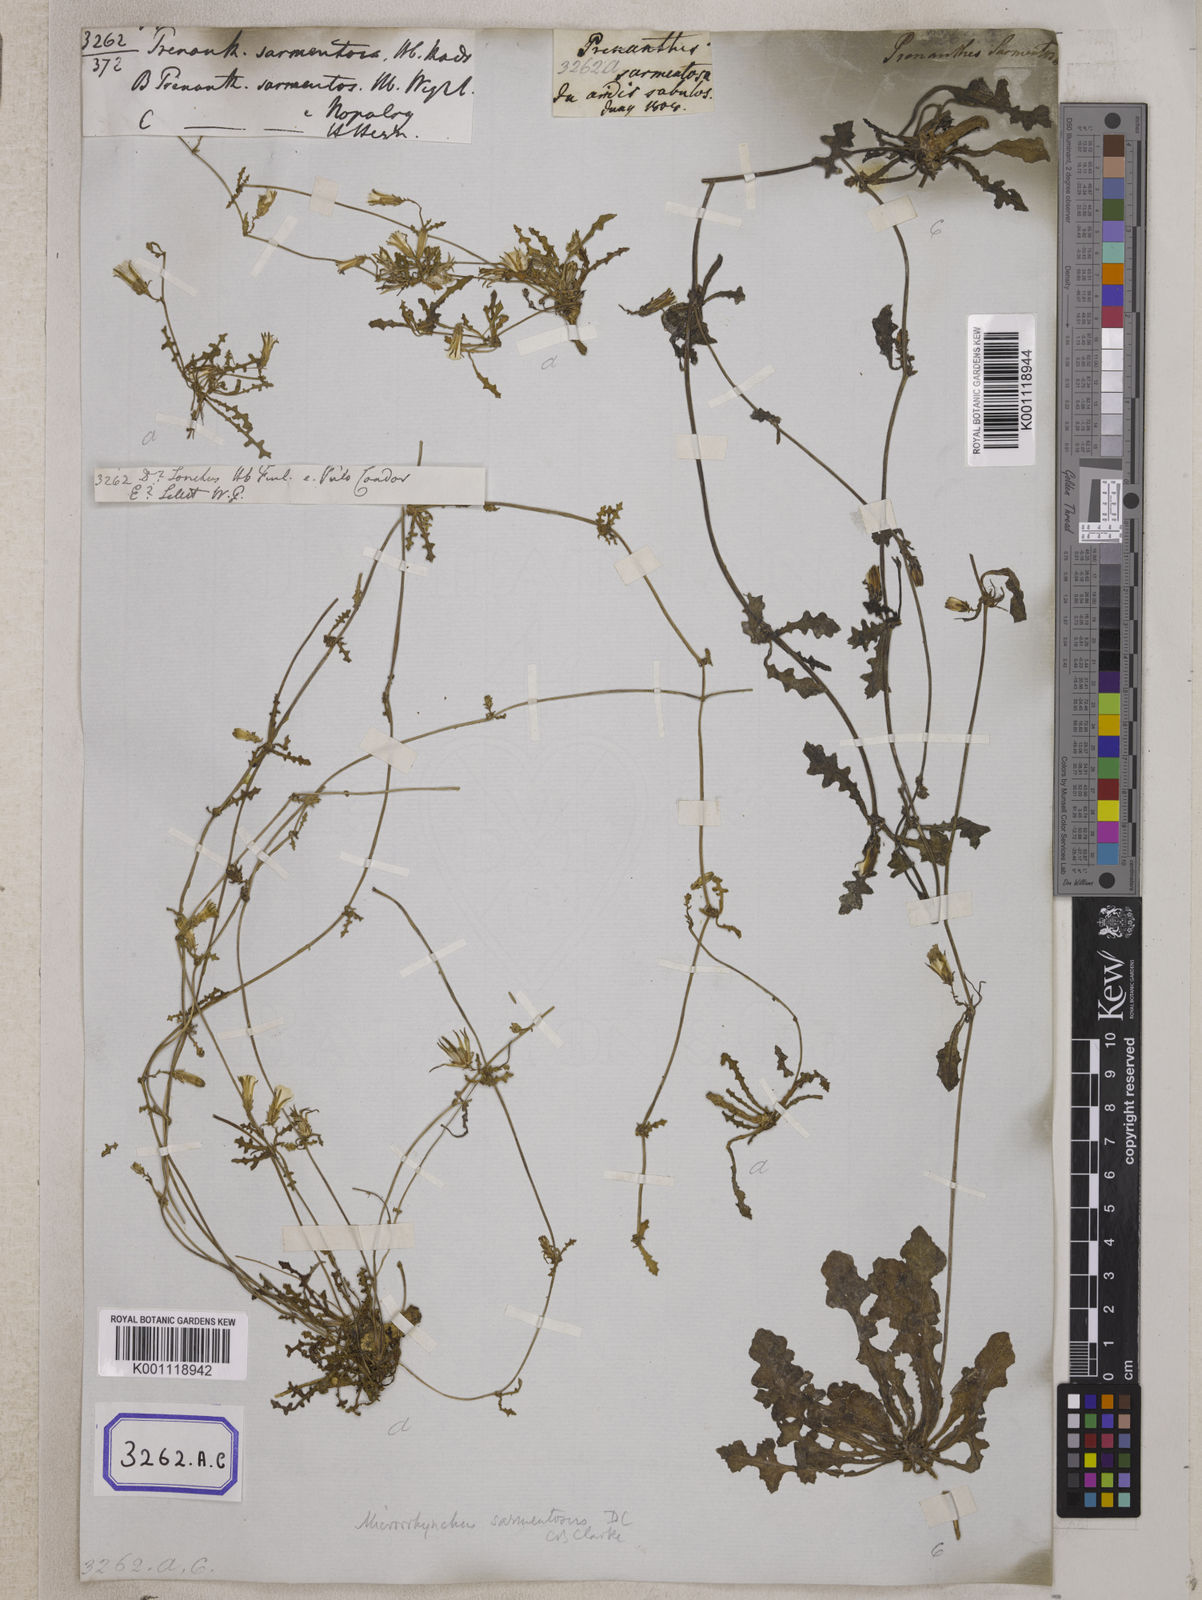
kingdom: Plantae
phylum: Tracheophyta
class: Magnoliopsida
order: Asterales
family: Asteraceae
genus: Emilia
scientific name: Emilia sonchifolia
